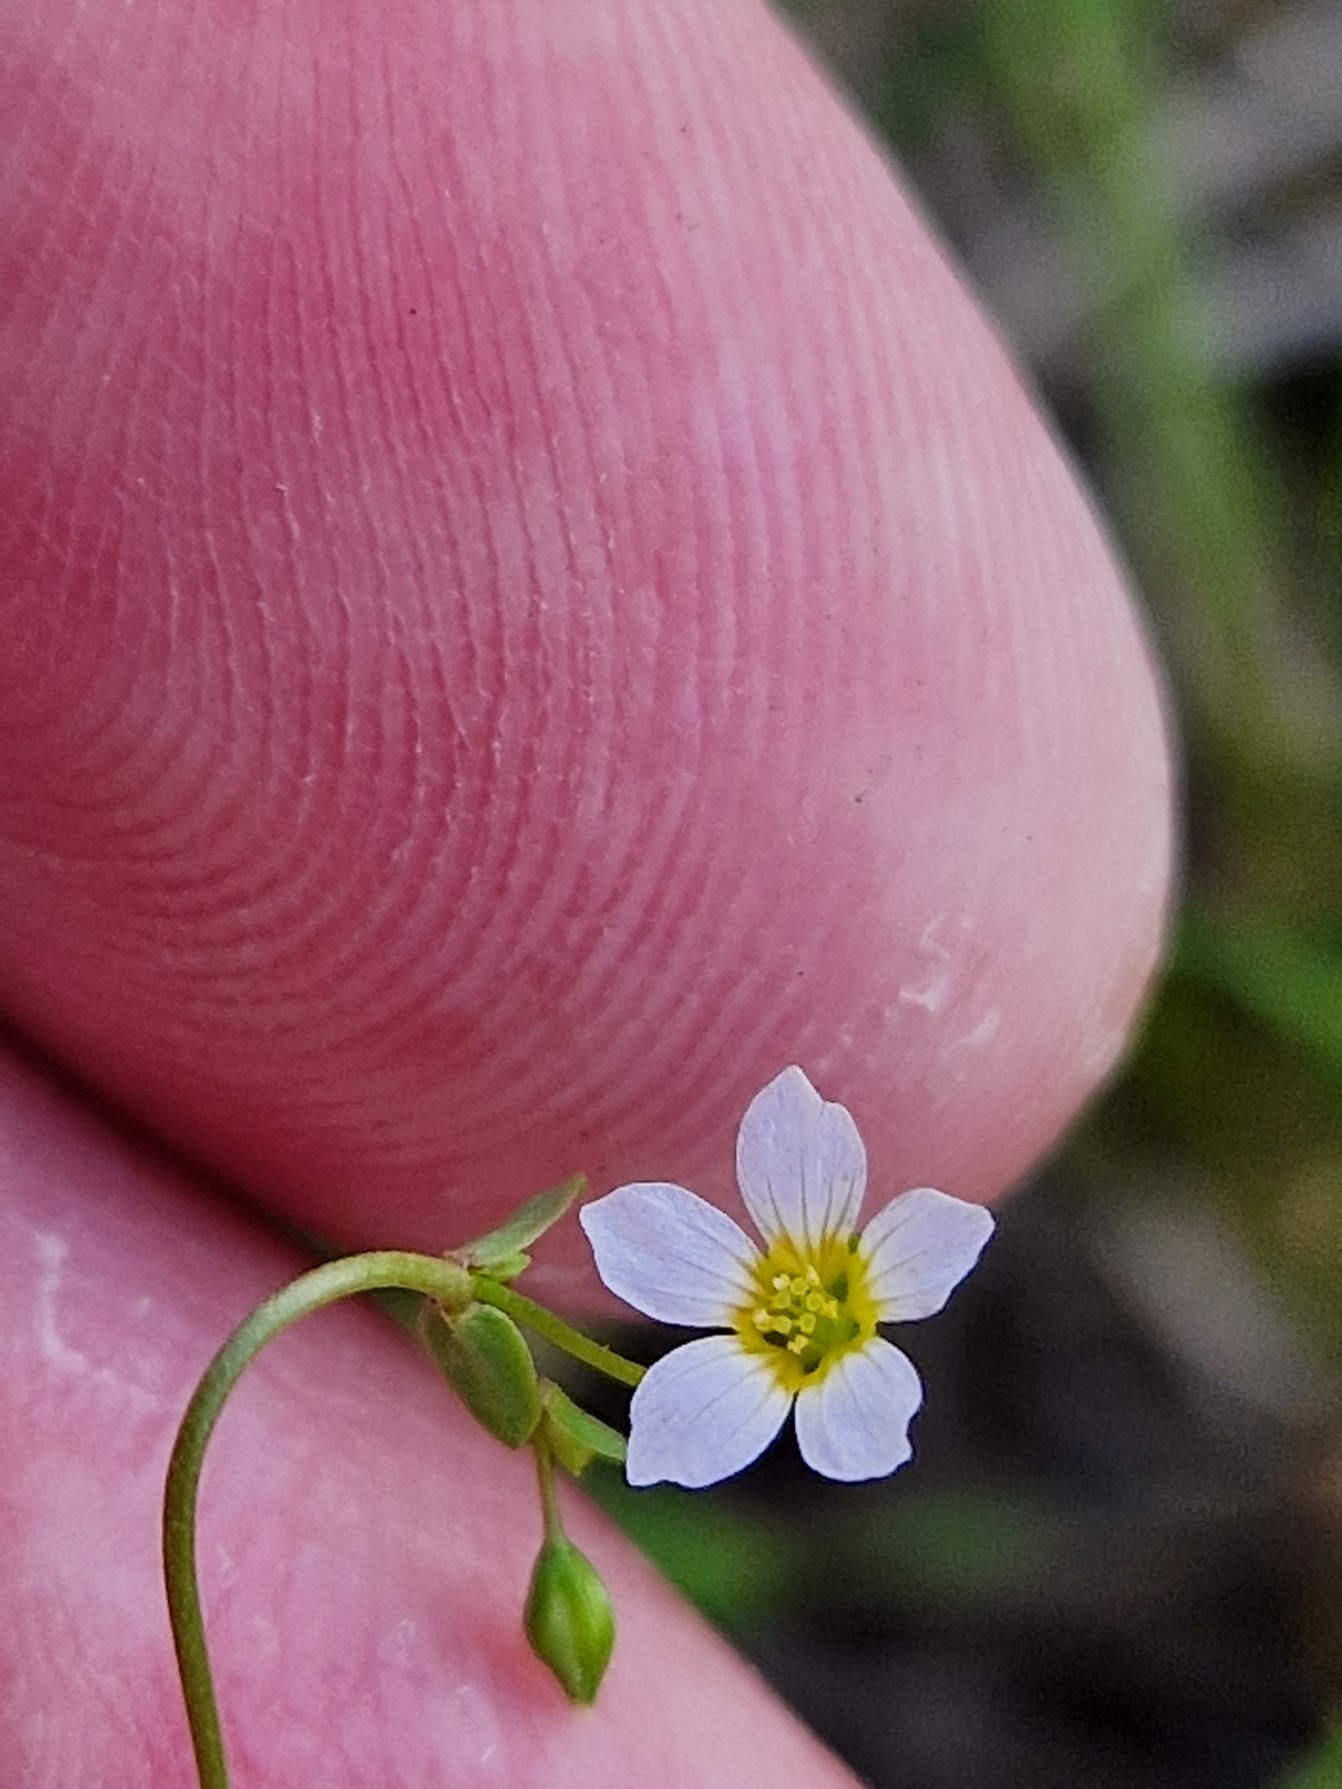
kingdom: Plantae
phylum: Tracheophyta
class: Magnoliopsida
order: Malpighiales
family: Linaceae
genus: Linum
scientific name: Linum catharticum
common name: Vild hør
